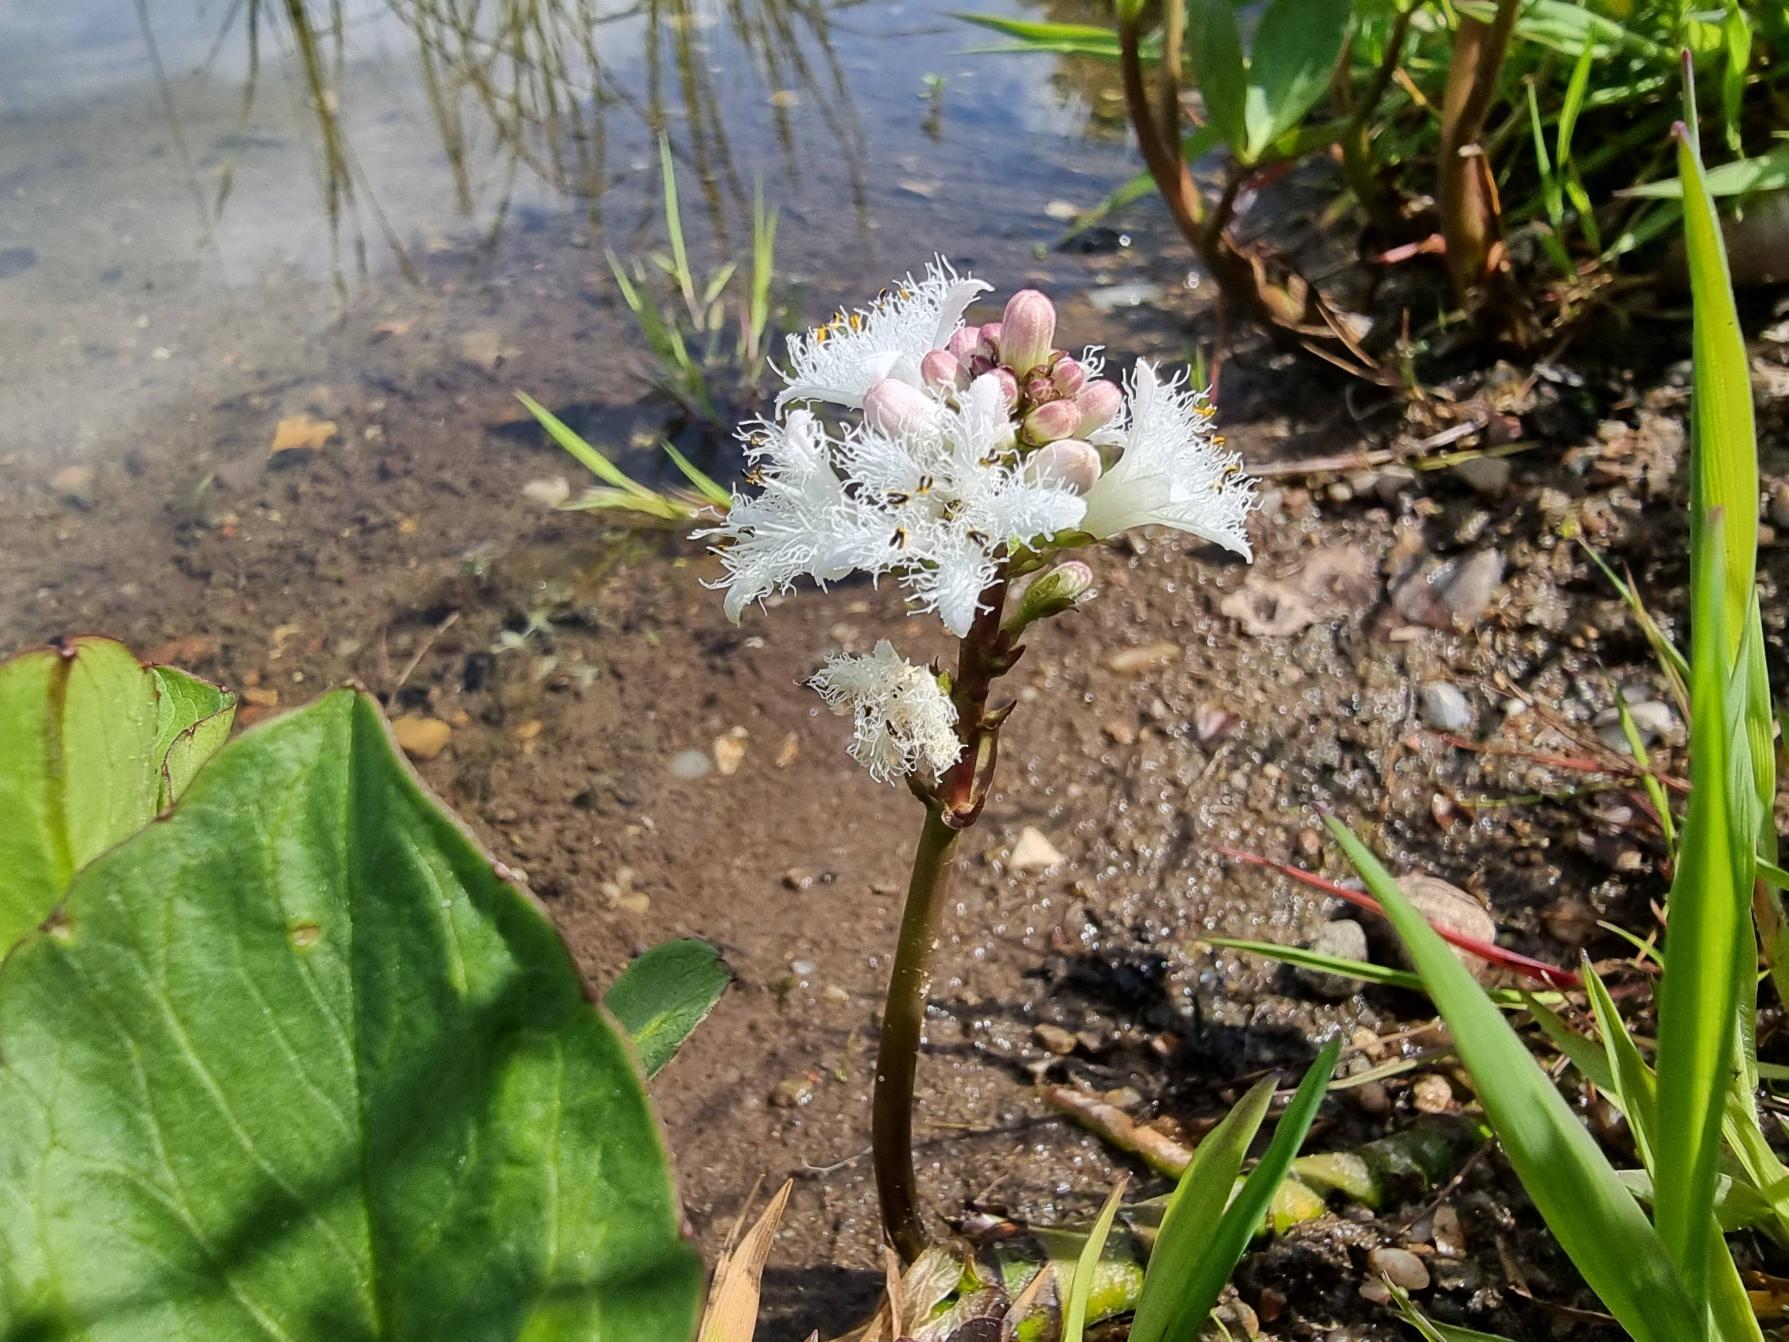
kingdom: Plantae
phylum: Tracheophyta
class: Magnoliopsida
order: Asterales
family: Menyanthaceae
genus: Menyanthes
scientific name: Menyanthes trifoliata
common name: Bukkeblad
